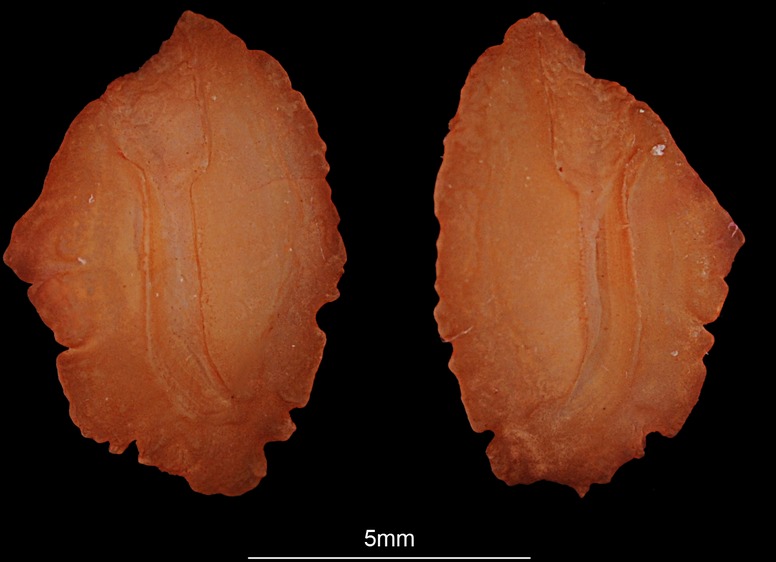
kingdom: Animalia
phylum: Chordata
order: Perciformes
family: Sparidae
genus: Argyrops
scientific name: Argyrops spinifer
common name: King soldier bream
